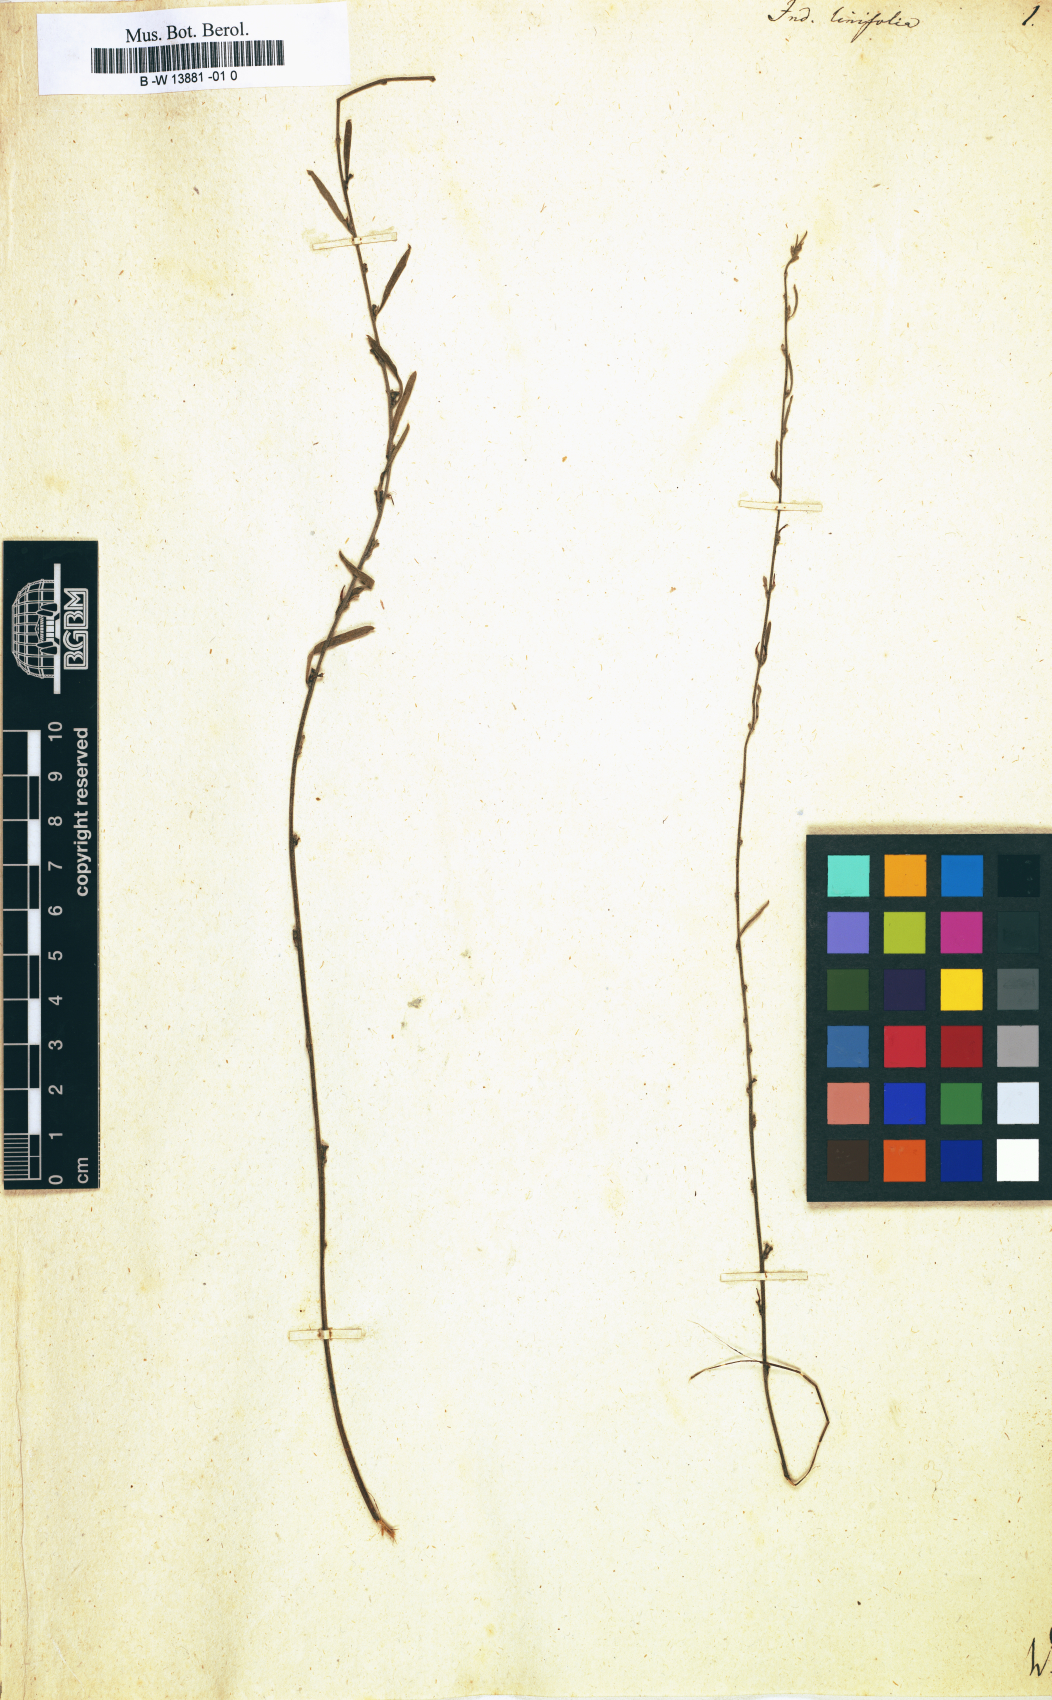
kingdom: Plantae
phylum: Tracheophyta
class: Magnoliopsida
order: Fabales
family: Fabaceae
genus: Indigofera
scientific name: Indigofera linifolia
